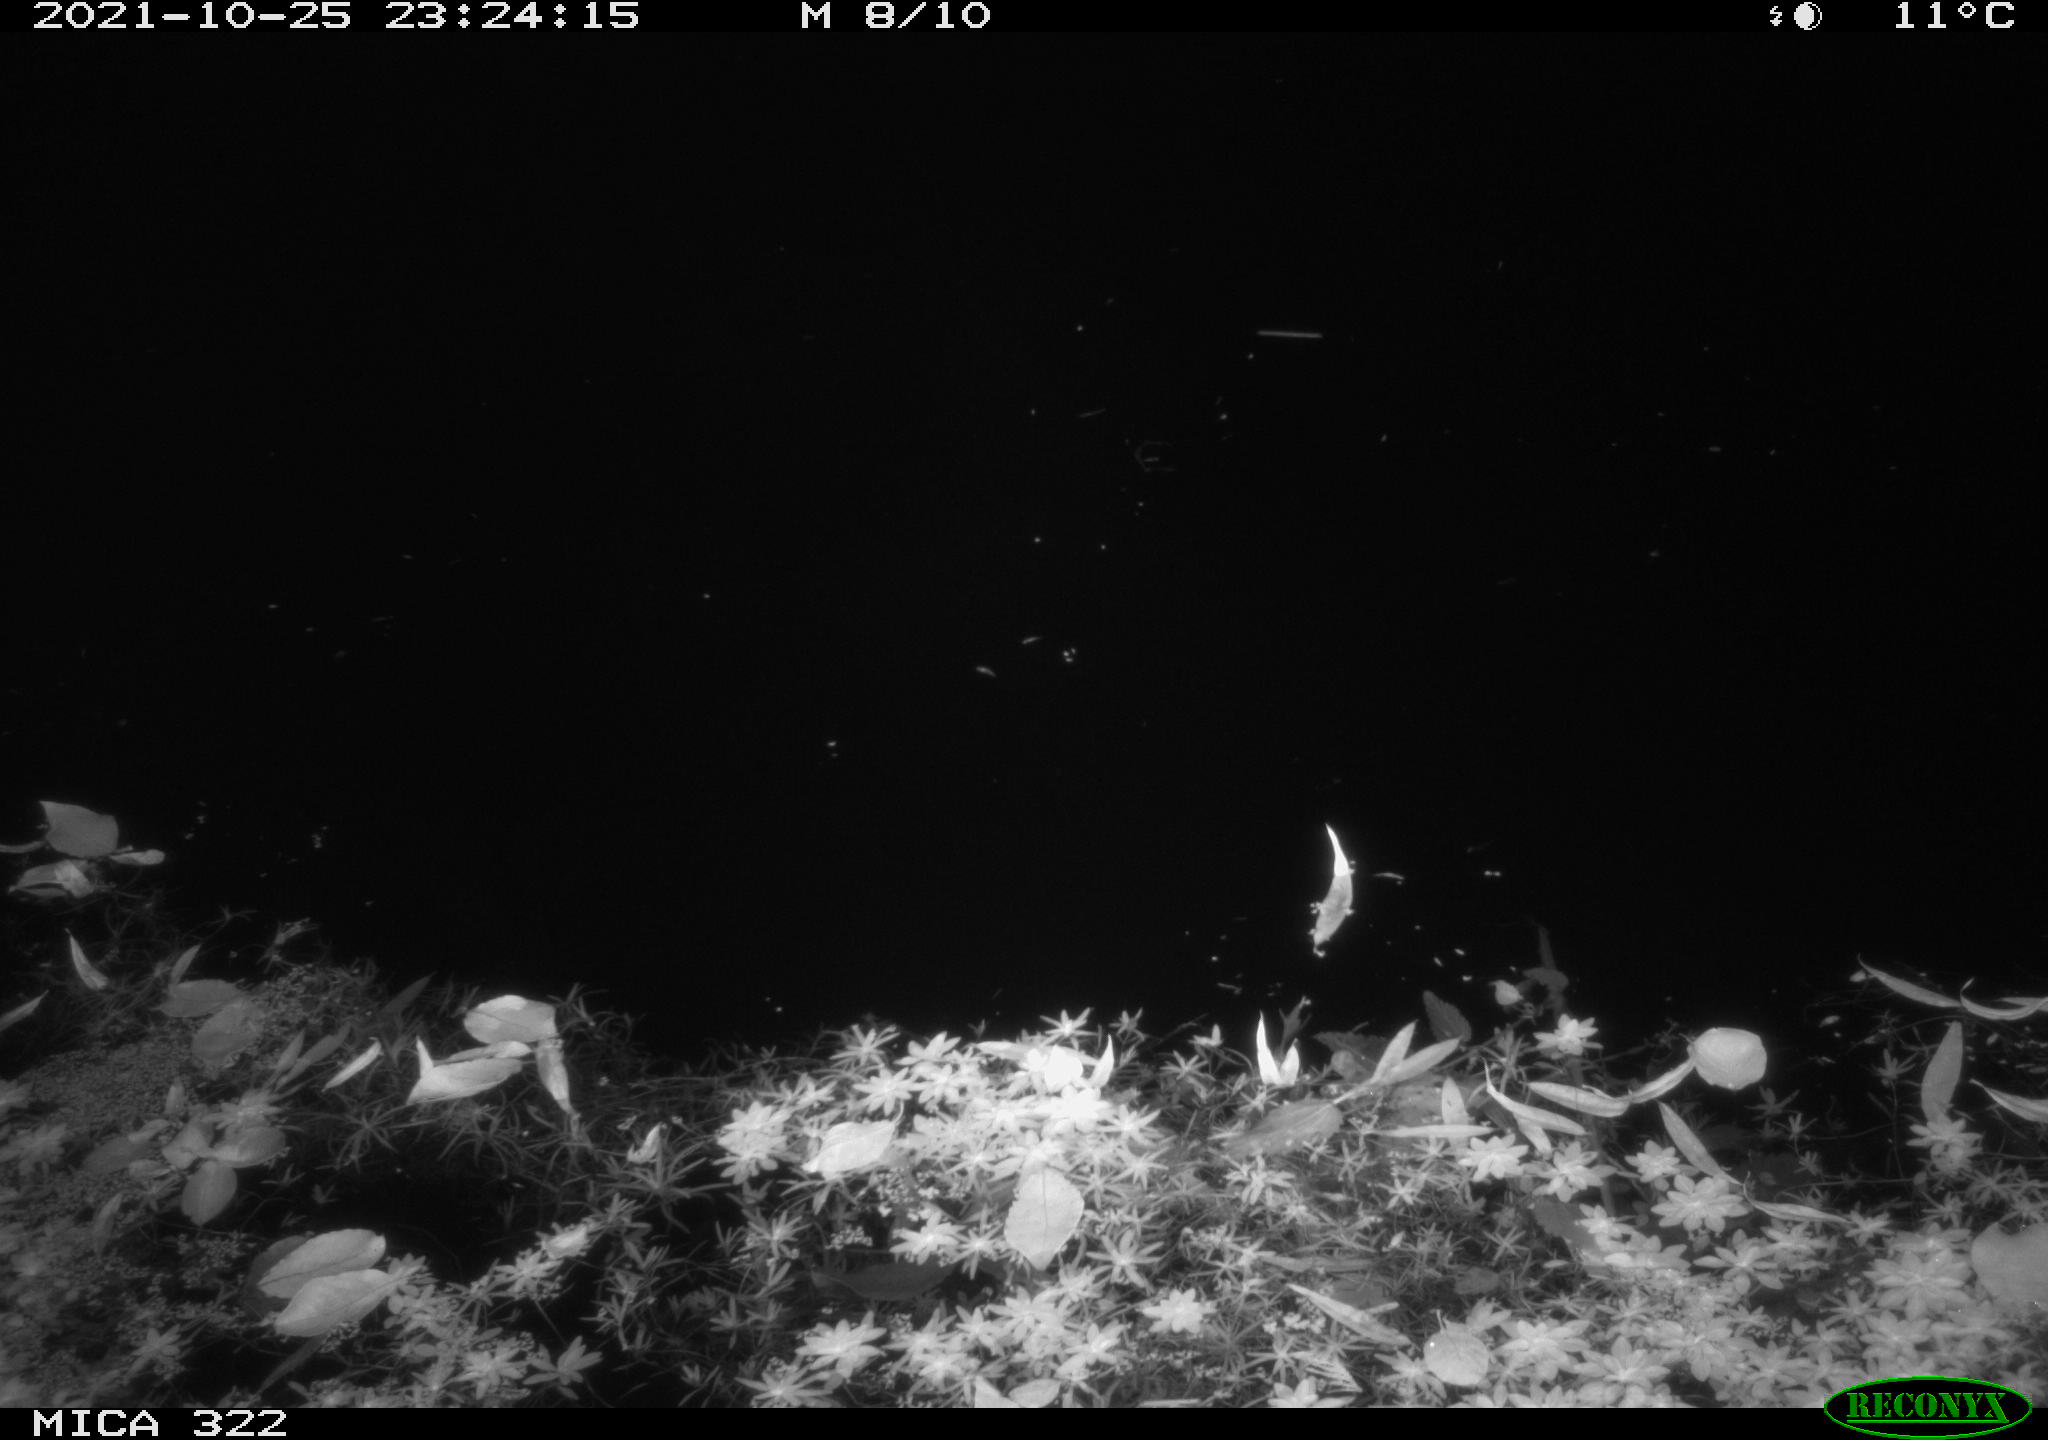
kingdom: Animalia
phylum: Chordata
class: Aves
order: Anseriformes
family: Anatidae
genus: Anas
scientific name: Anas platyrhynchos
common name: Mallard
